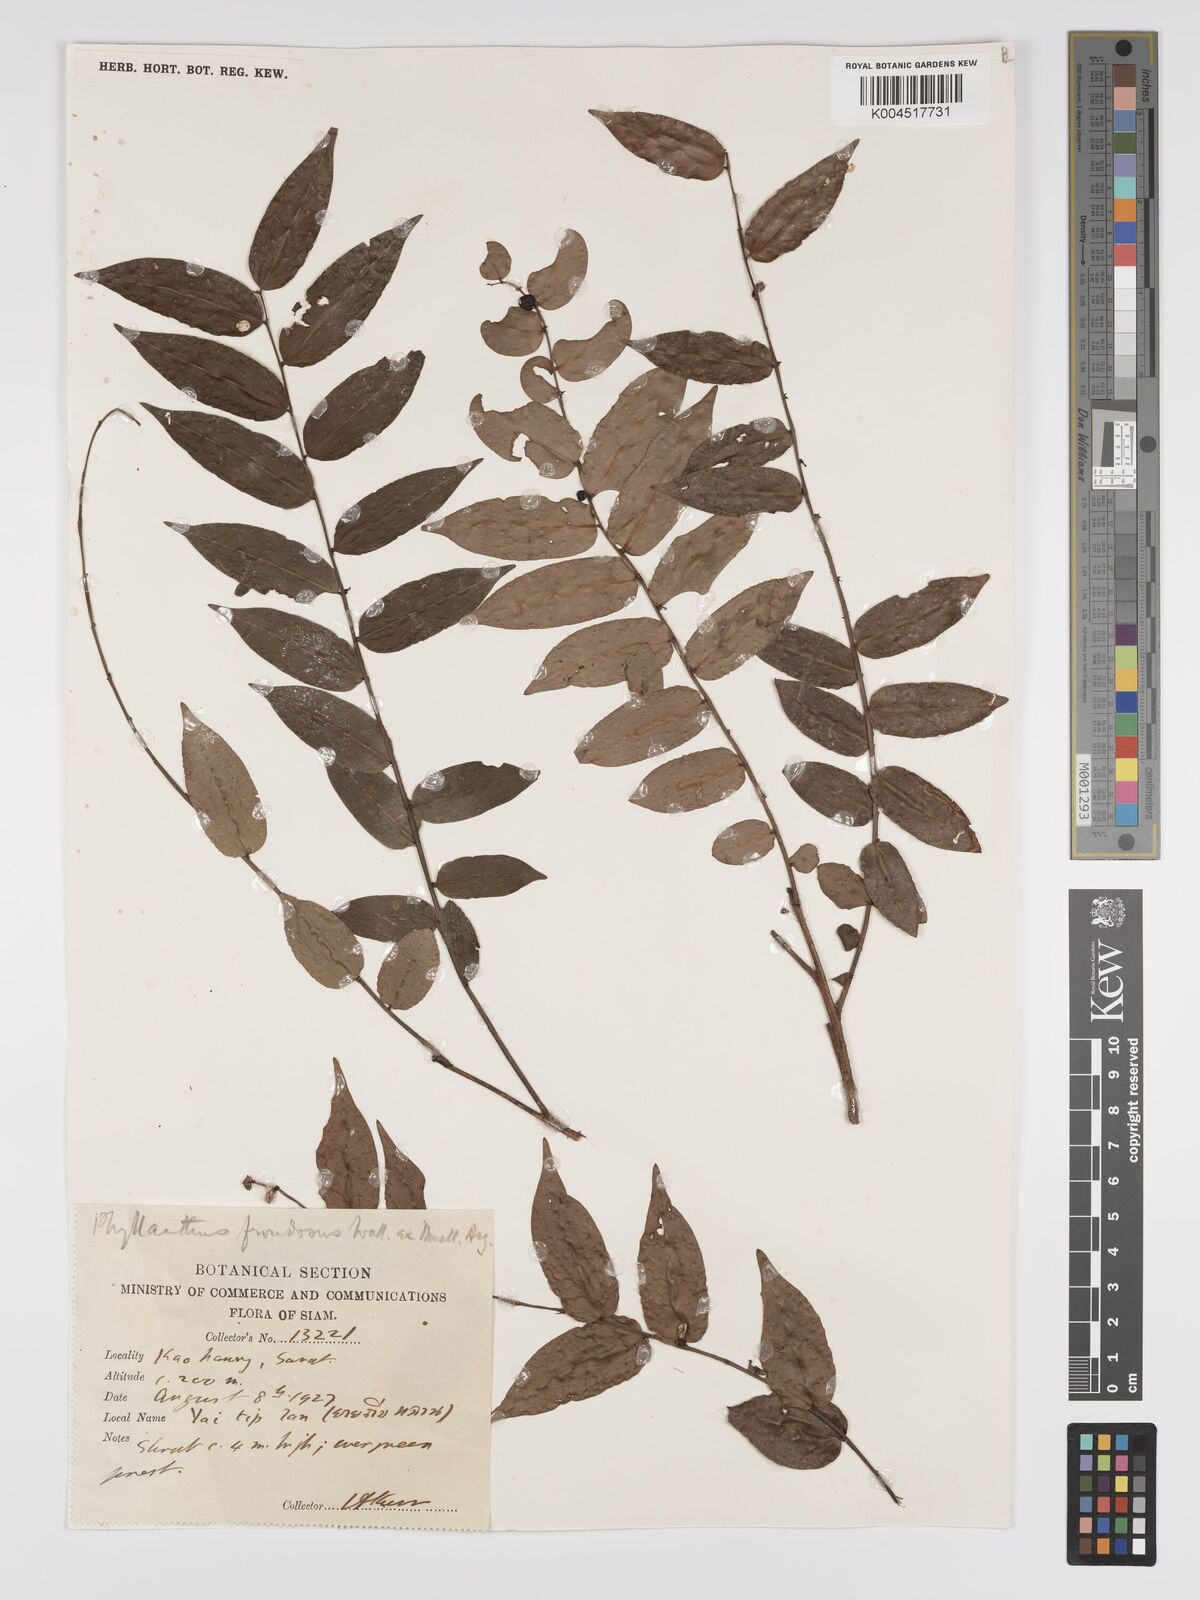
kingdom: Plantae
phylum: Tracheophyta
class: Magnoliopsida
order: Malpighiales
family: Phyllanthaceae
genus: Phyllanthus
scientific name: Phyllanthus
